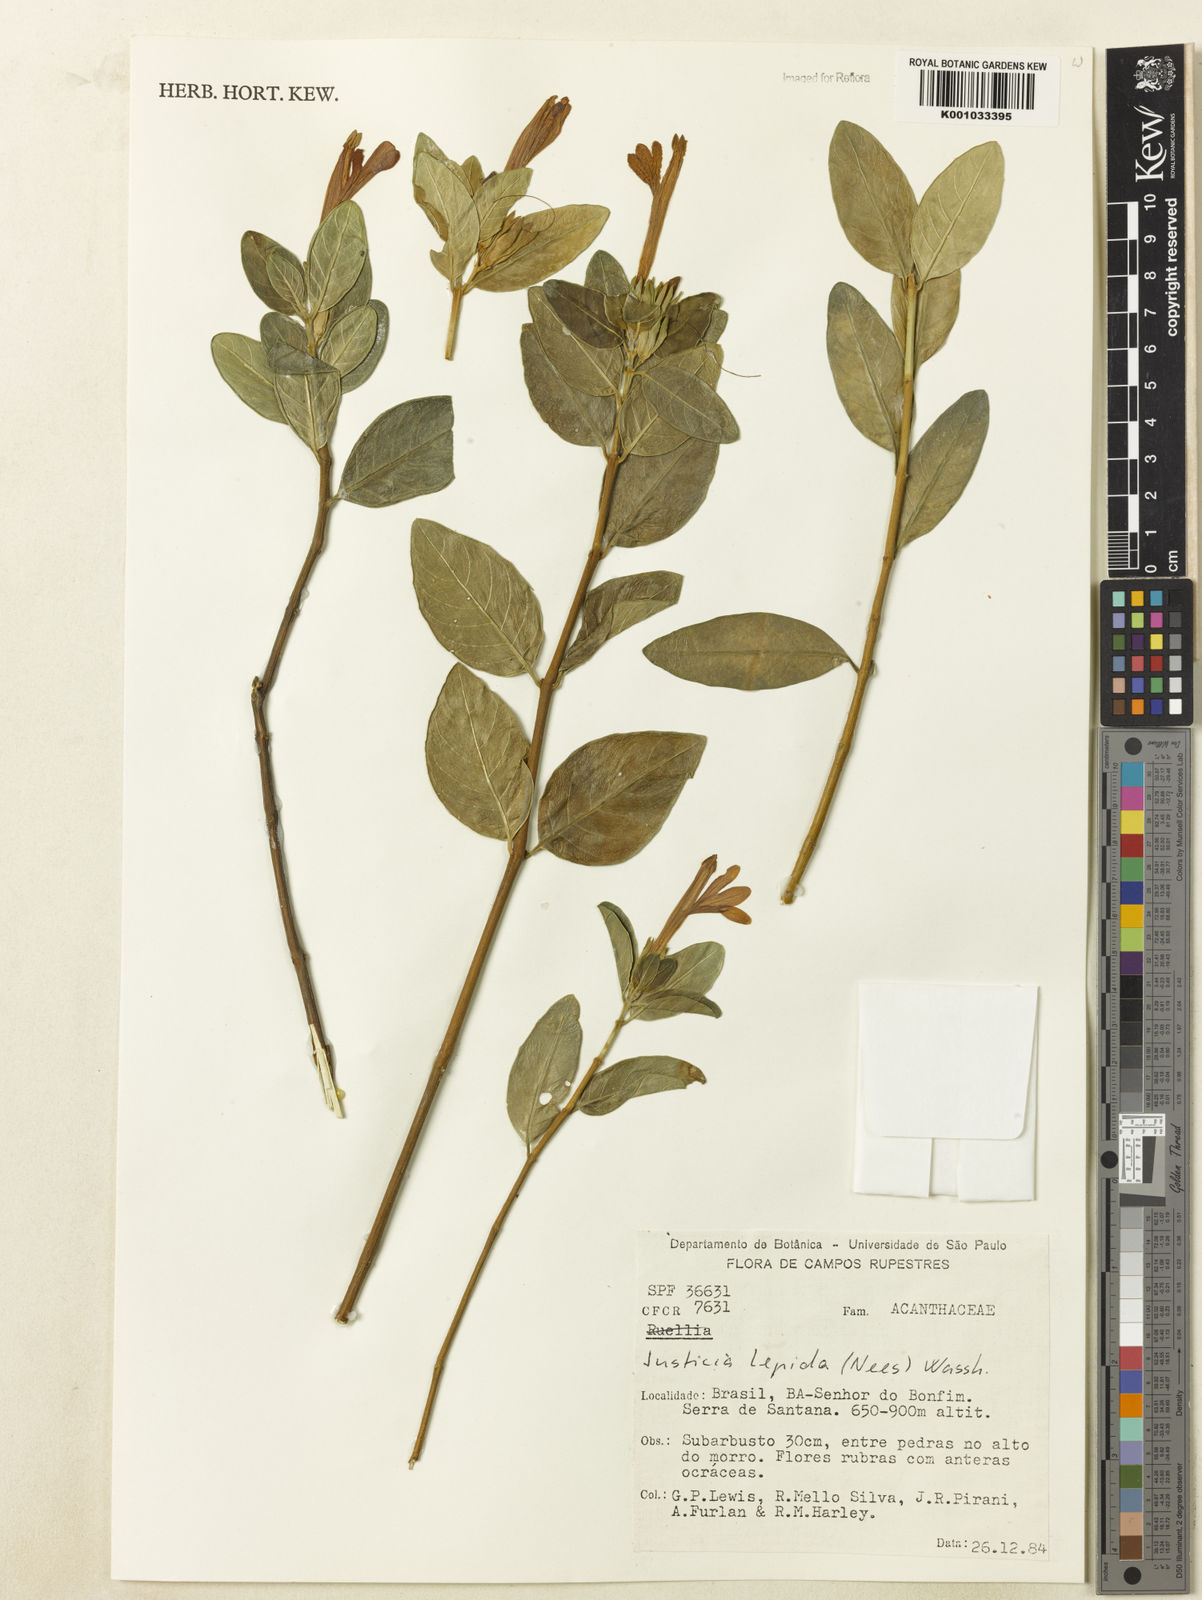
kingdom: Plantae
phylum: Tracheophyta
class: Magnoliopsida
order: Lamiales
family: Acanthaceae
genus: Justicia
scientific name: Justicia lepida
